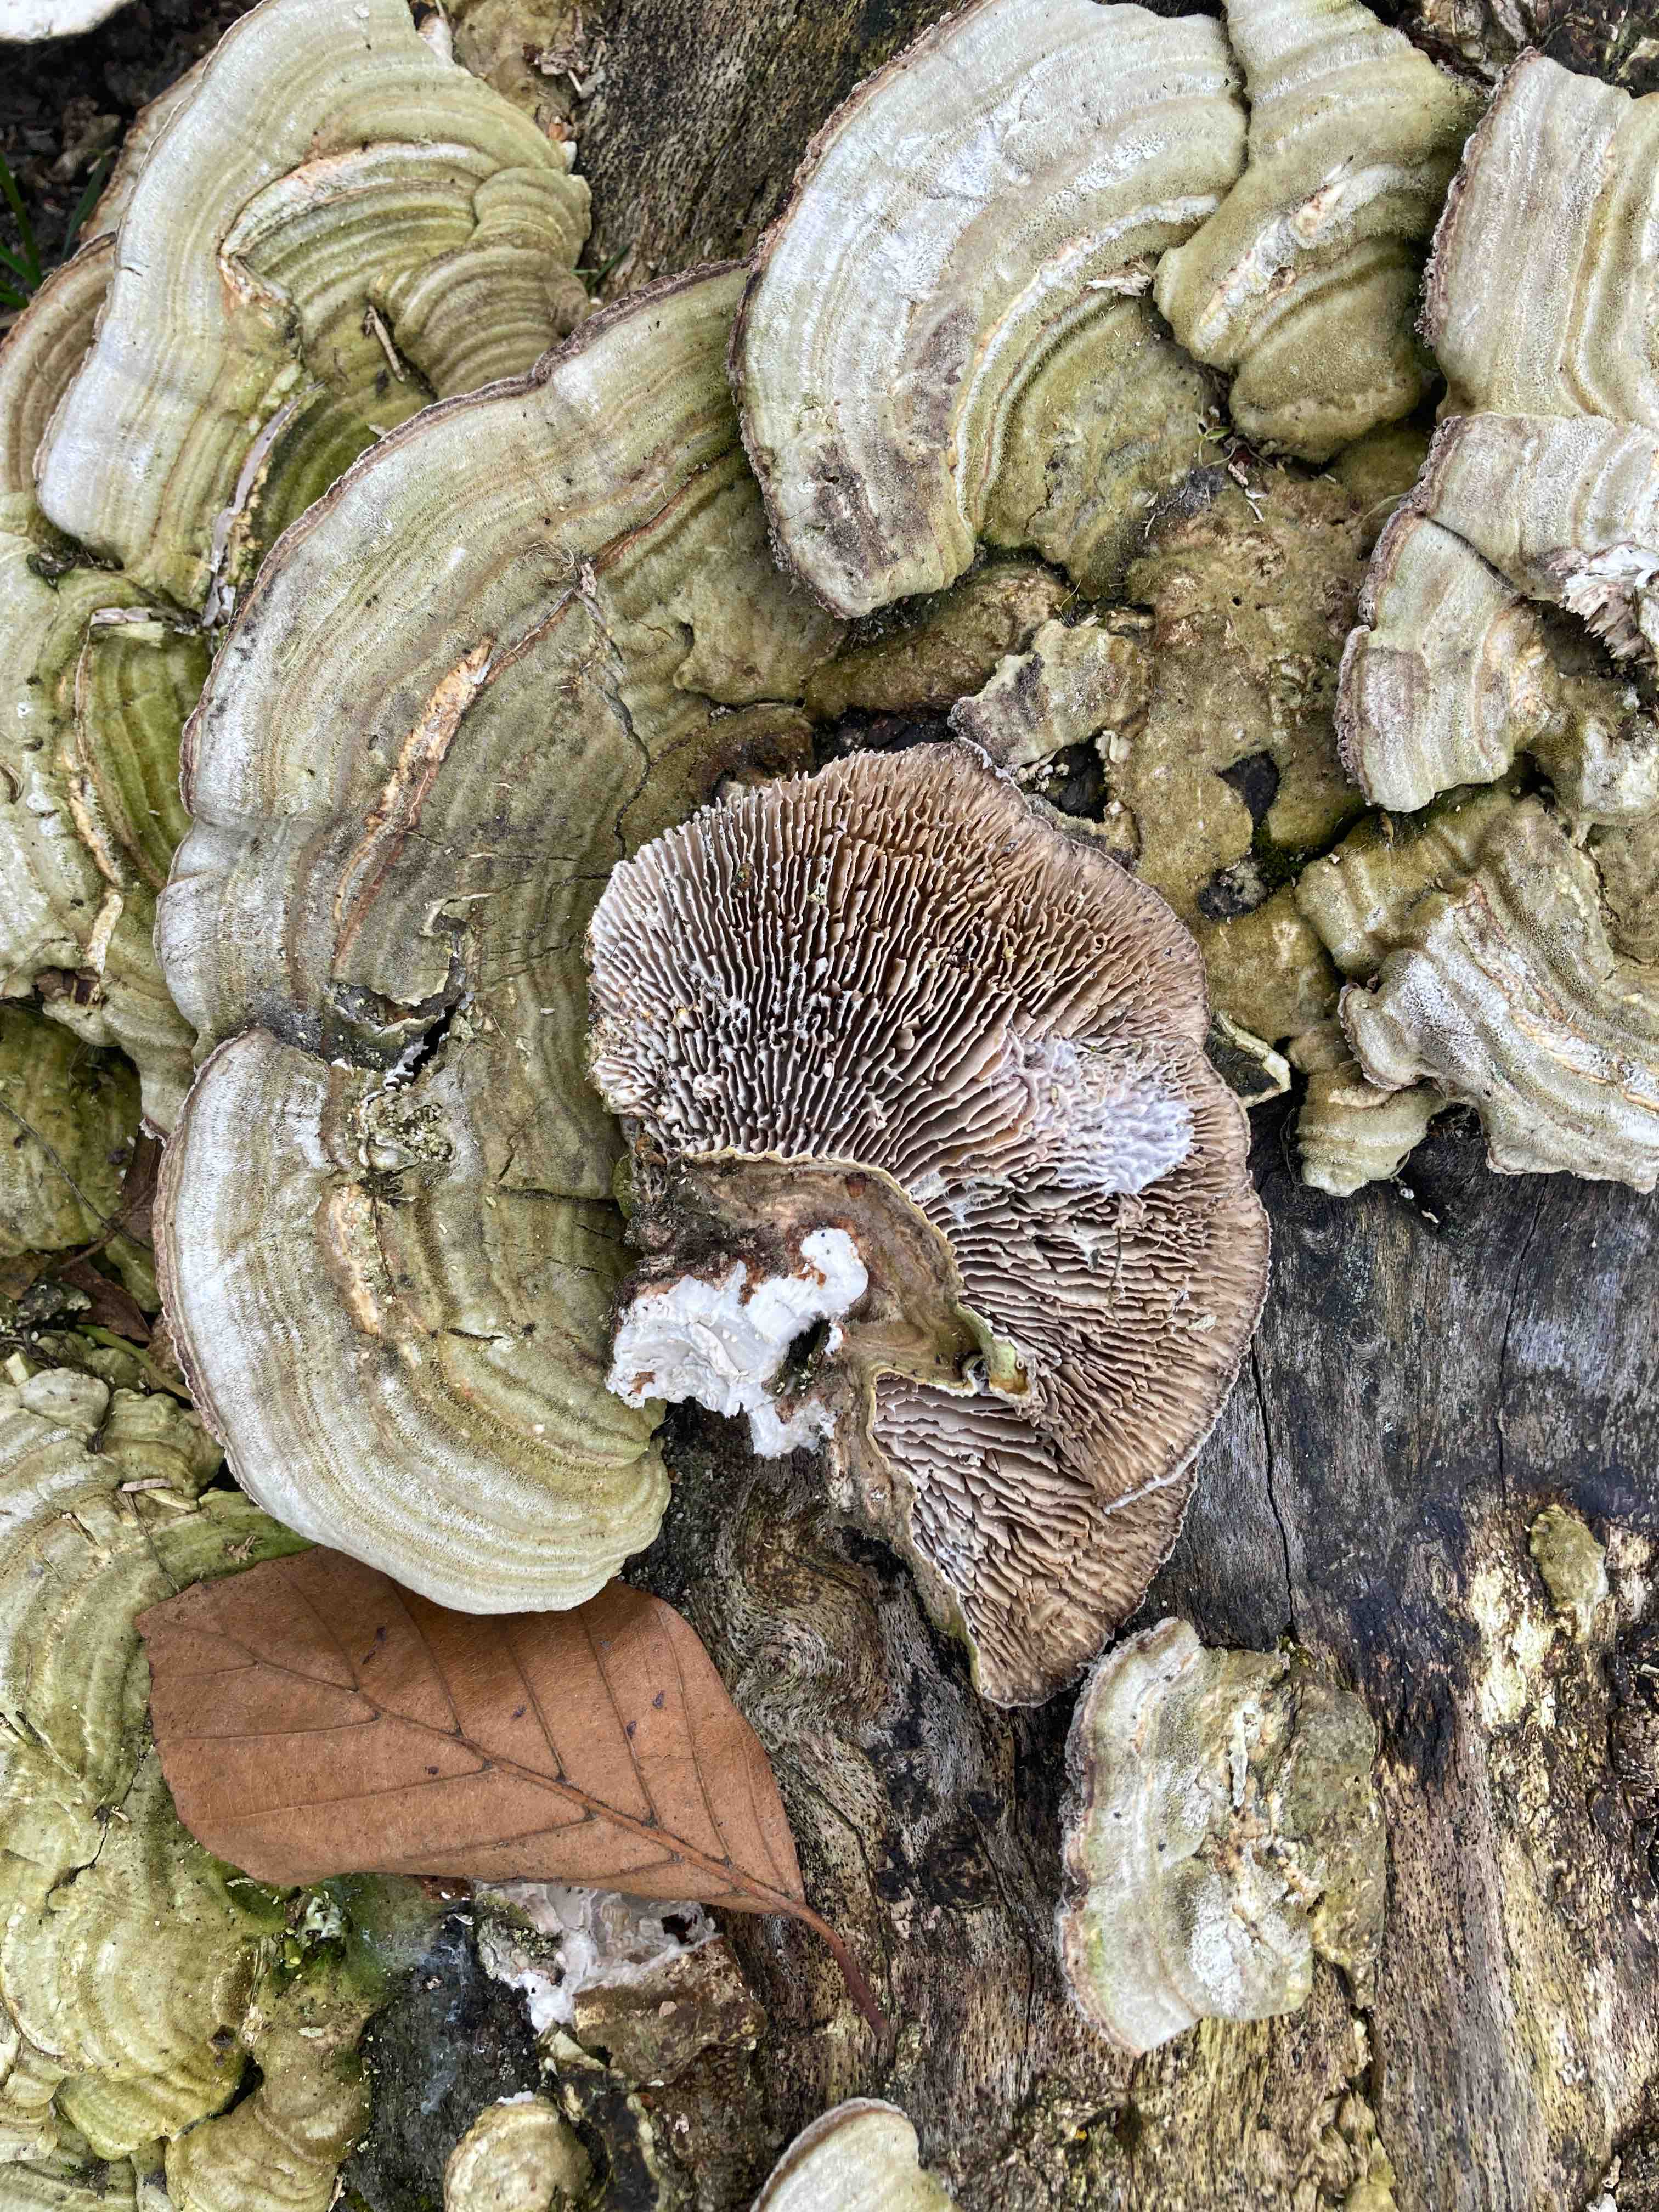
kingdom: Fungi
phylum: Basidiomycota
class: Agaricomycetes
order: Polyporales
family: Polyporaceae
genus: Lenzites
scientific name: Lenzites betulinus
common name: birke-læderporesvamp
